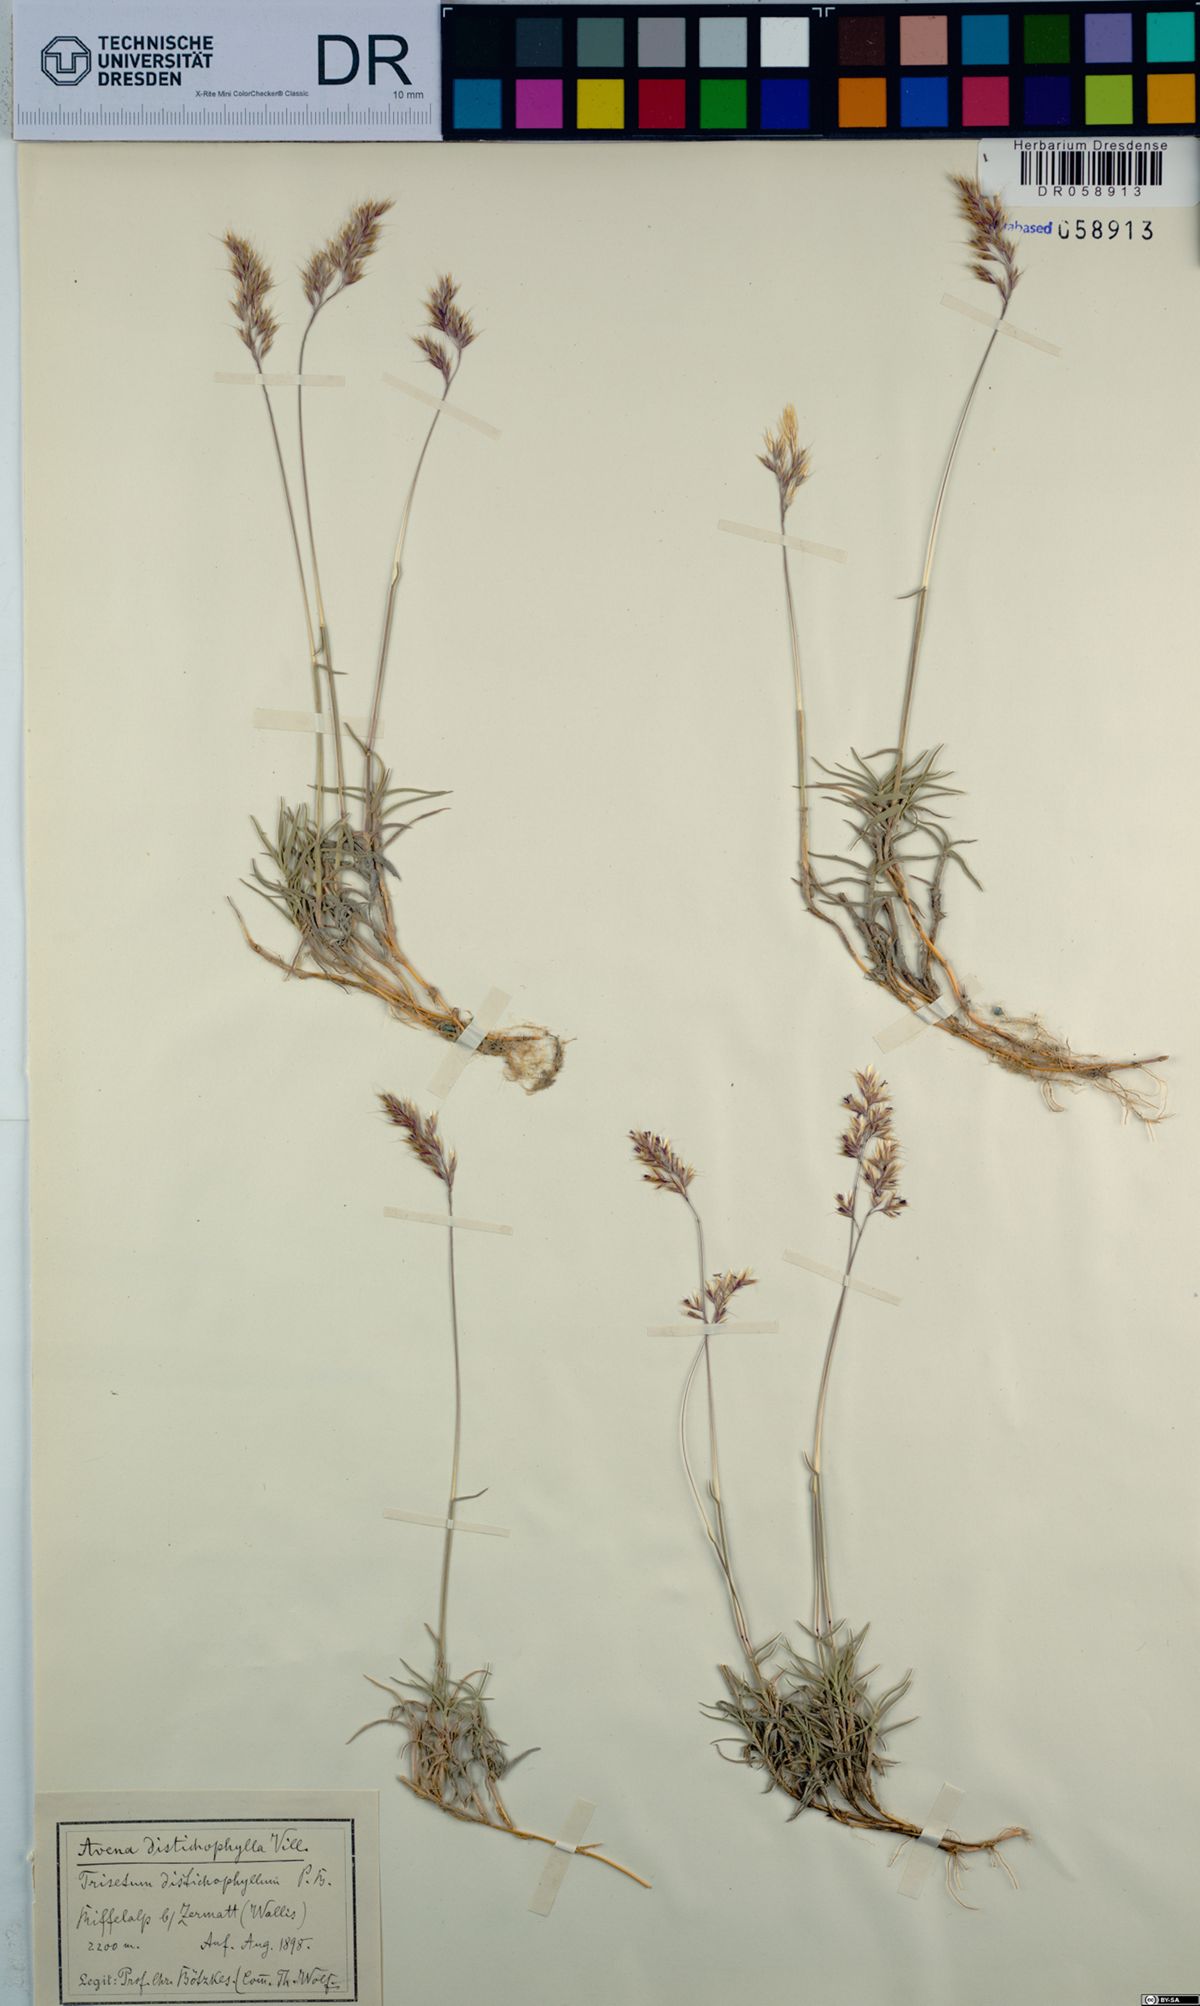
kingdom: Plantae
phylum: Tracheophyta
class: Liliopsida
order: Poales
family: Poaceae
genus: Acrospelion
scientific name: Acrospelion distichophyllum
